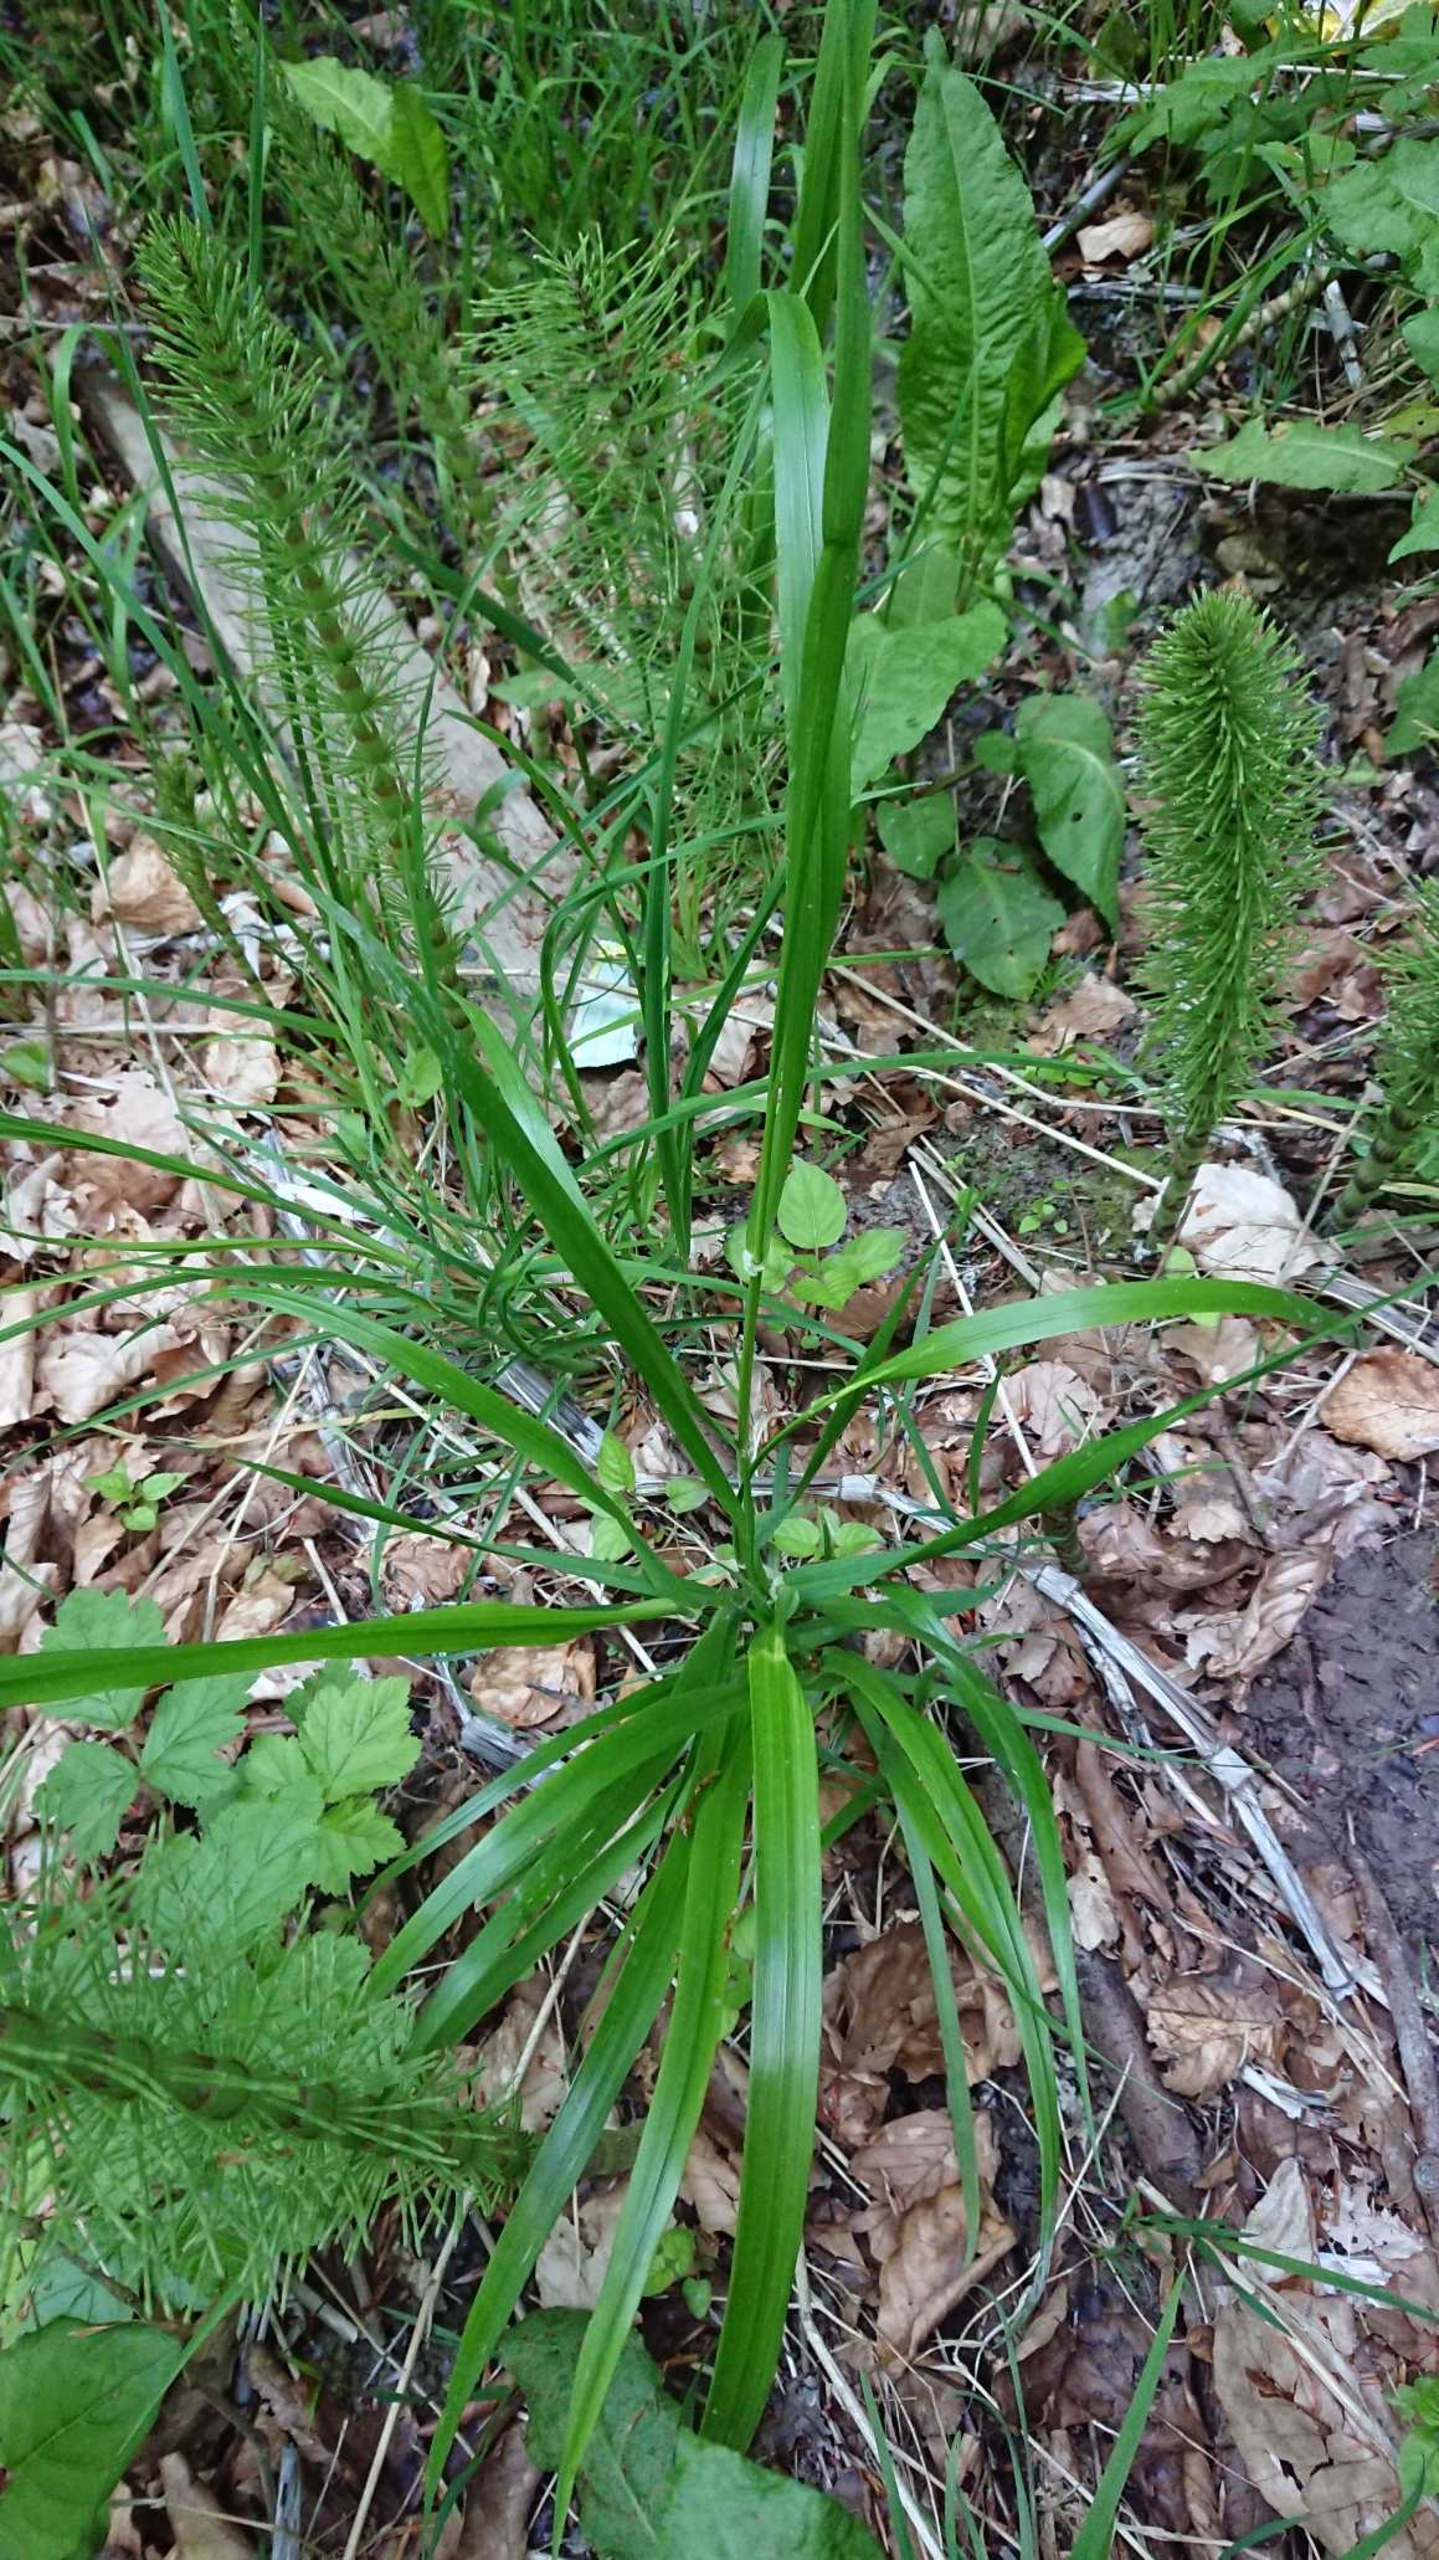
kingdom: Plantae
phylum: Tracheophyta
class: Liliopsida
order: Poales
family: Poaceae
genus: Lolium
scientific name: Lolium giganteum
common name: Kæmpe-svingel
